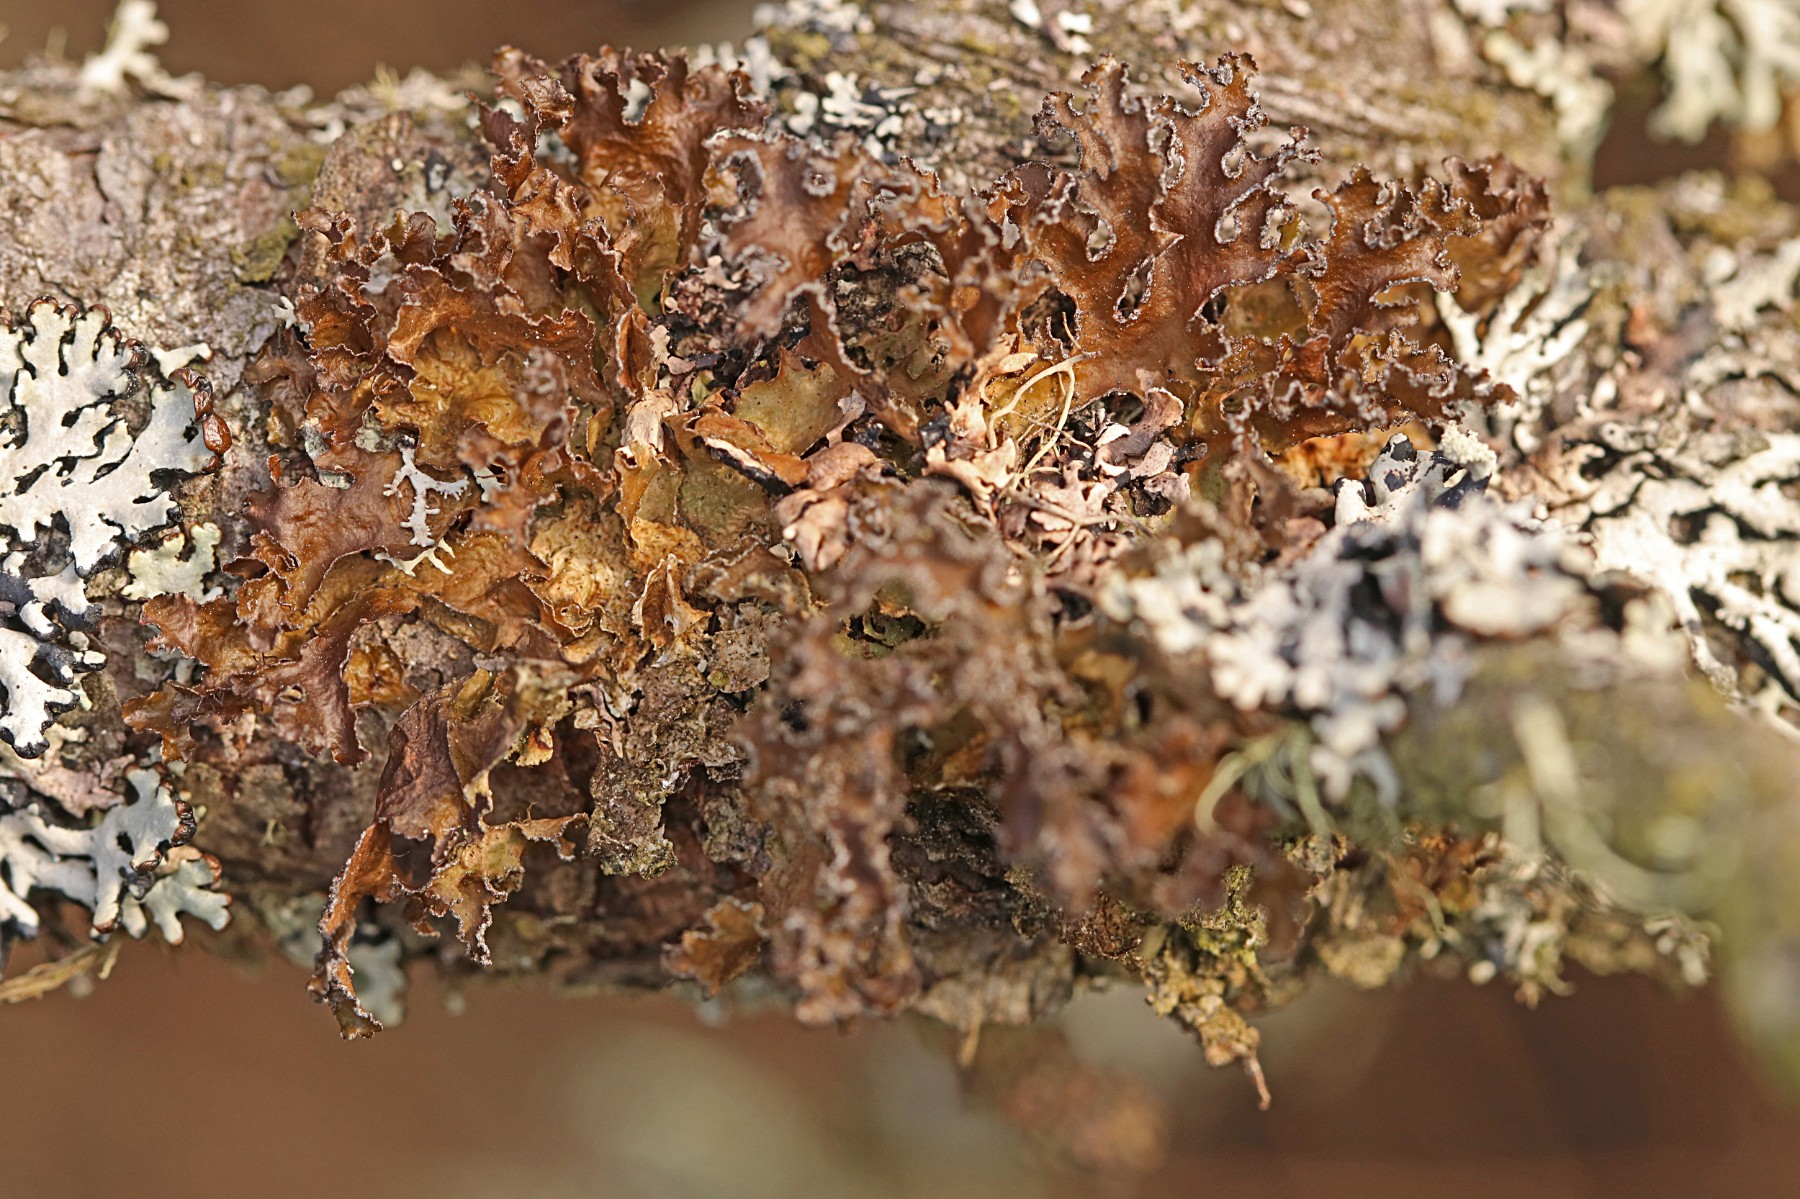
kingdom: Fungi
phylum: Ascomycota
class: Lecanoromycetes
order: Lecanorales
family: Parmeliaceae
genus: Nephromopsis
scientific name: Nephromopsis chlorophylla
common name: olivenbrun kruslav
